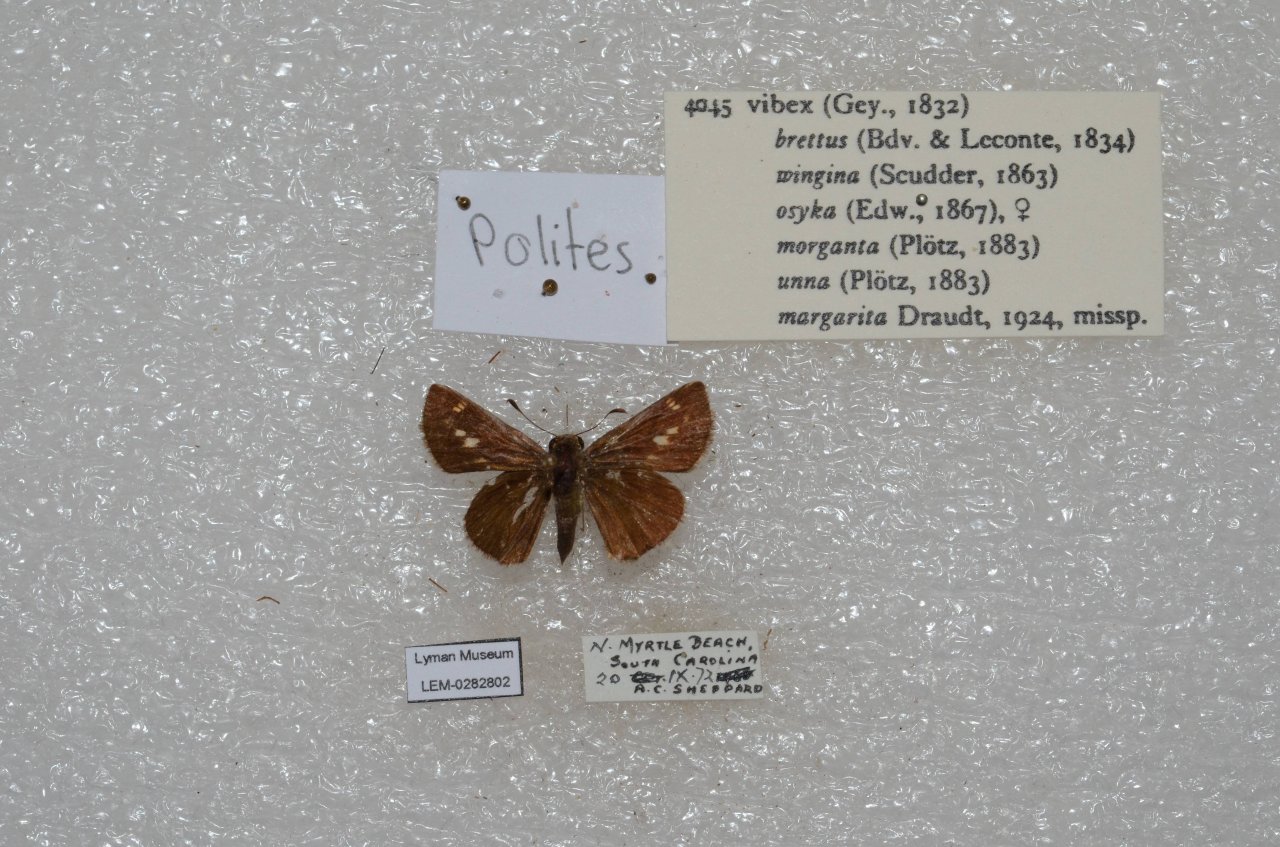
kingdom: Animalia
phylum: Arthropoda
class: Insecta
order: Lepidoptera
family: Hesperiidae
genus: Polites
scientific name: Polites vibex
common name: Whirlabout
